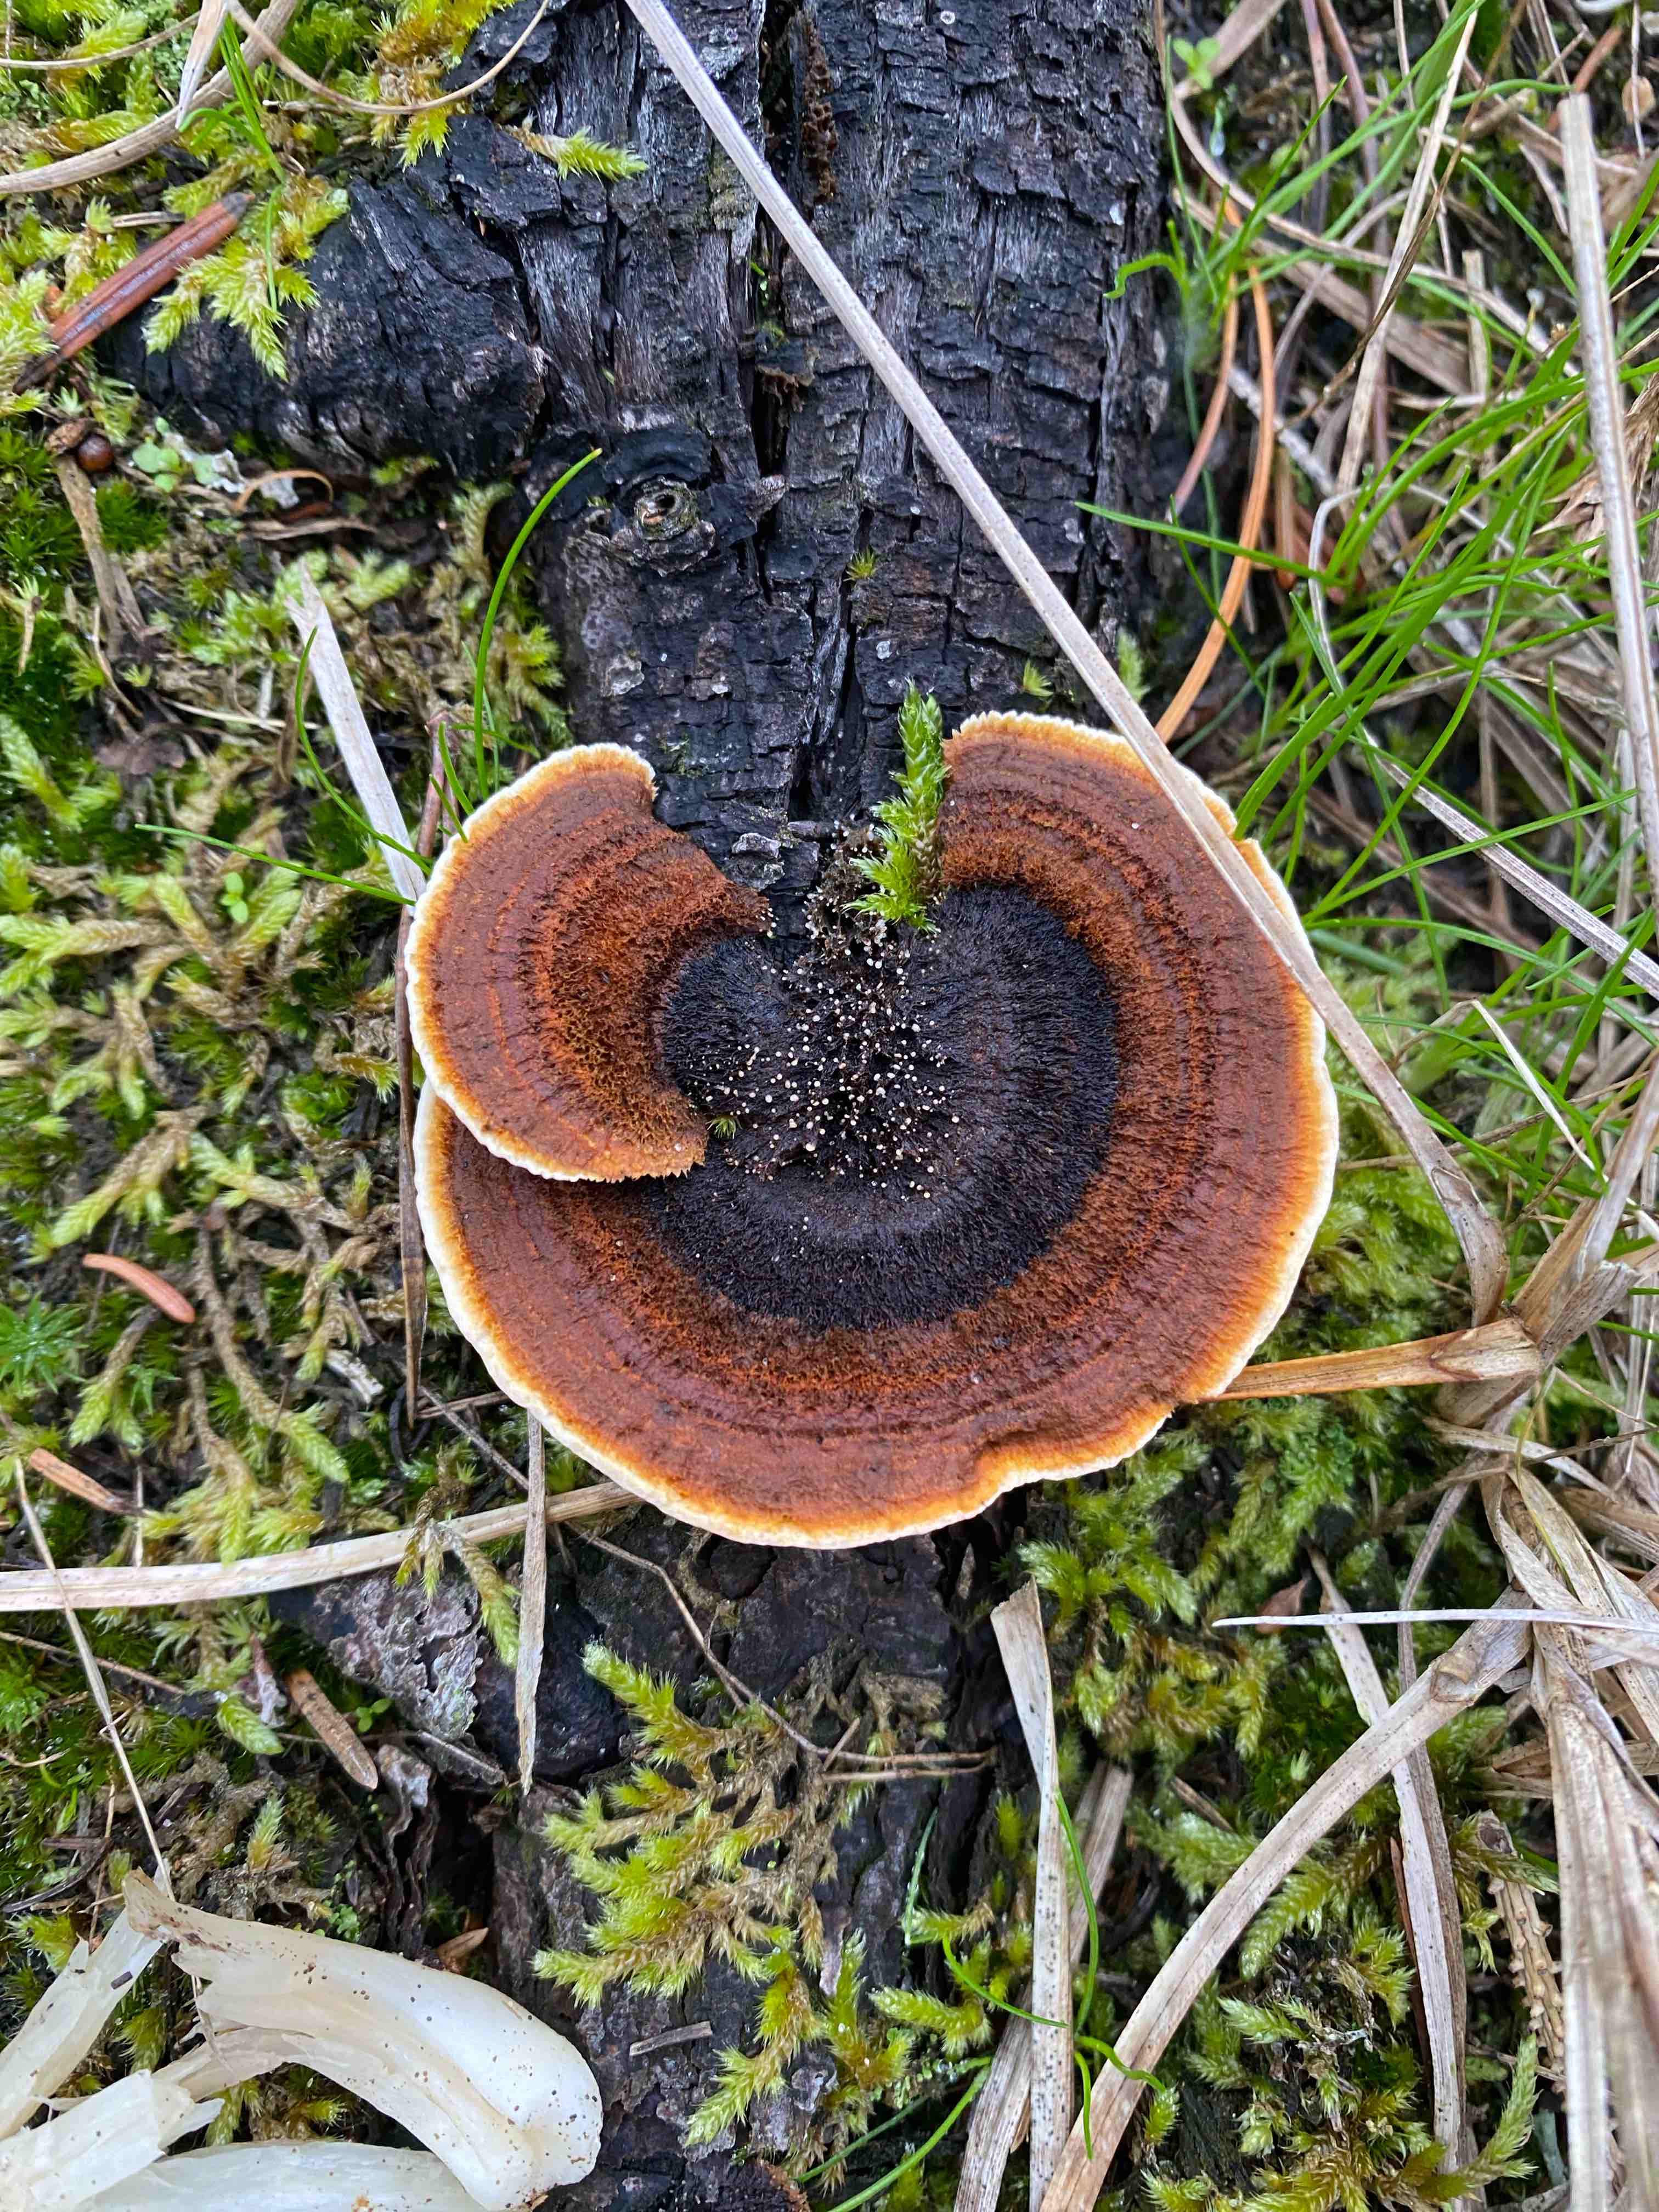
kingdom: Fungi
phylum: Basidiomycota
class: Agaricomycetes
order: Gloeophyllales
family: Gloeophyllaceae
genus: Gloeophyllum
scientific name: Gloeophyllum sepiarium
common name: fyrre-korkhat
